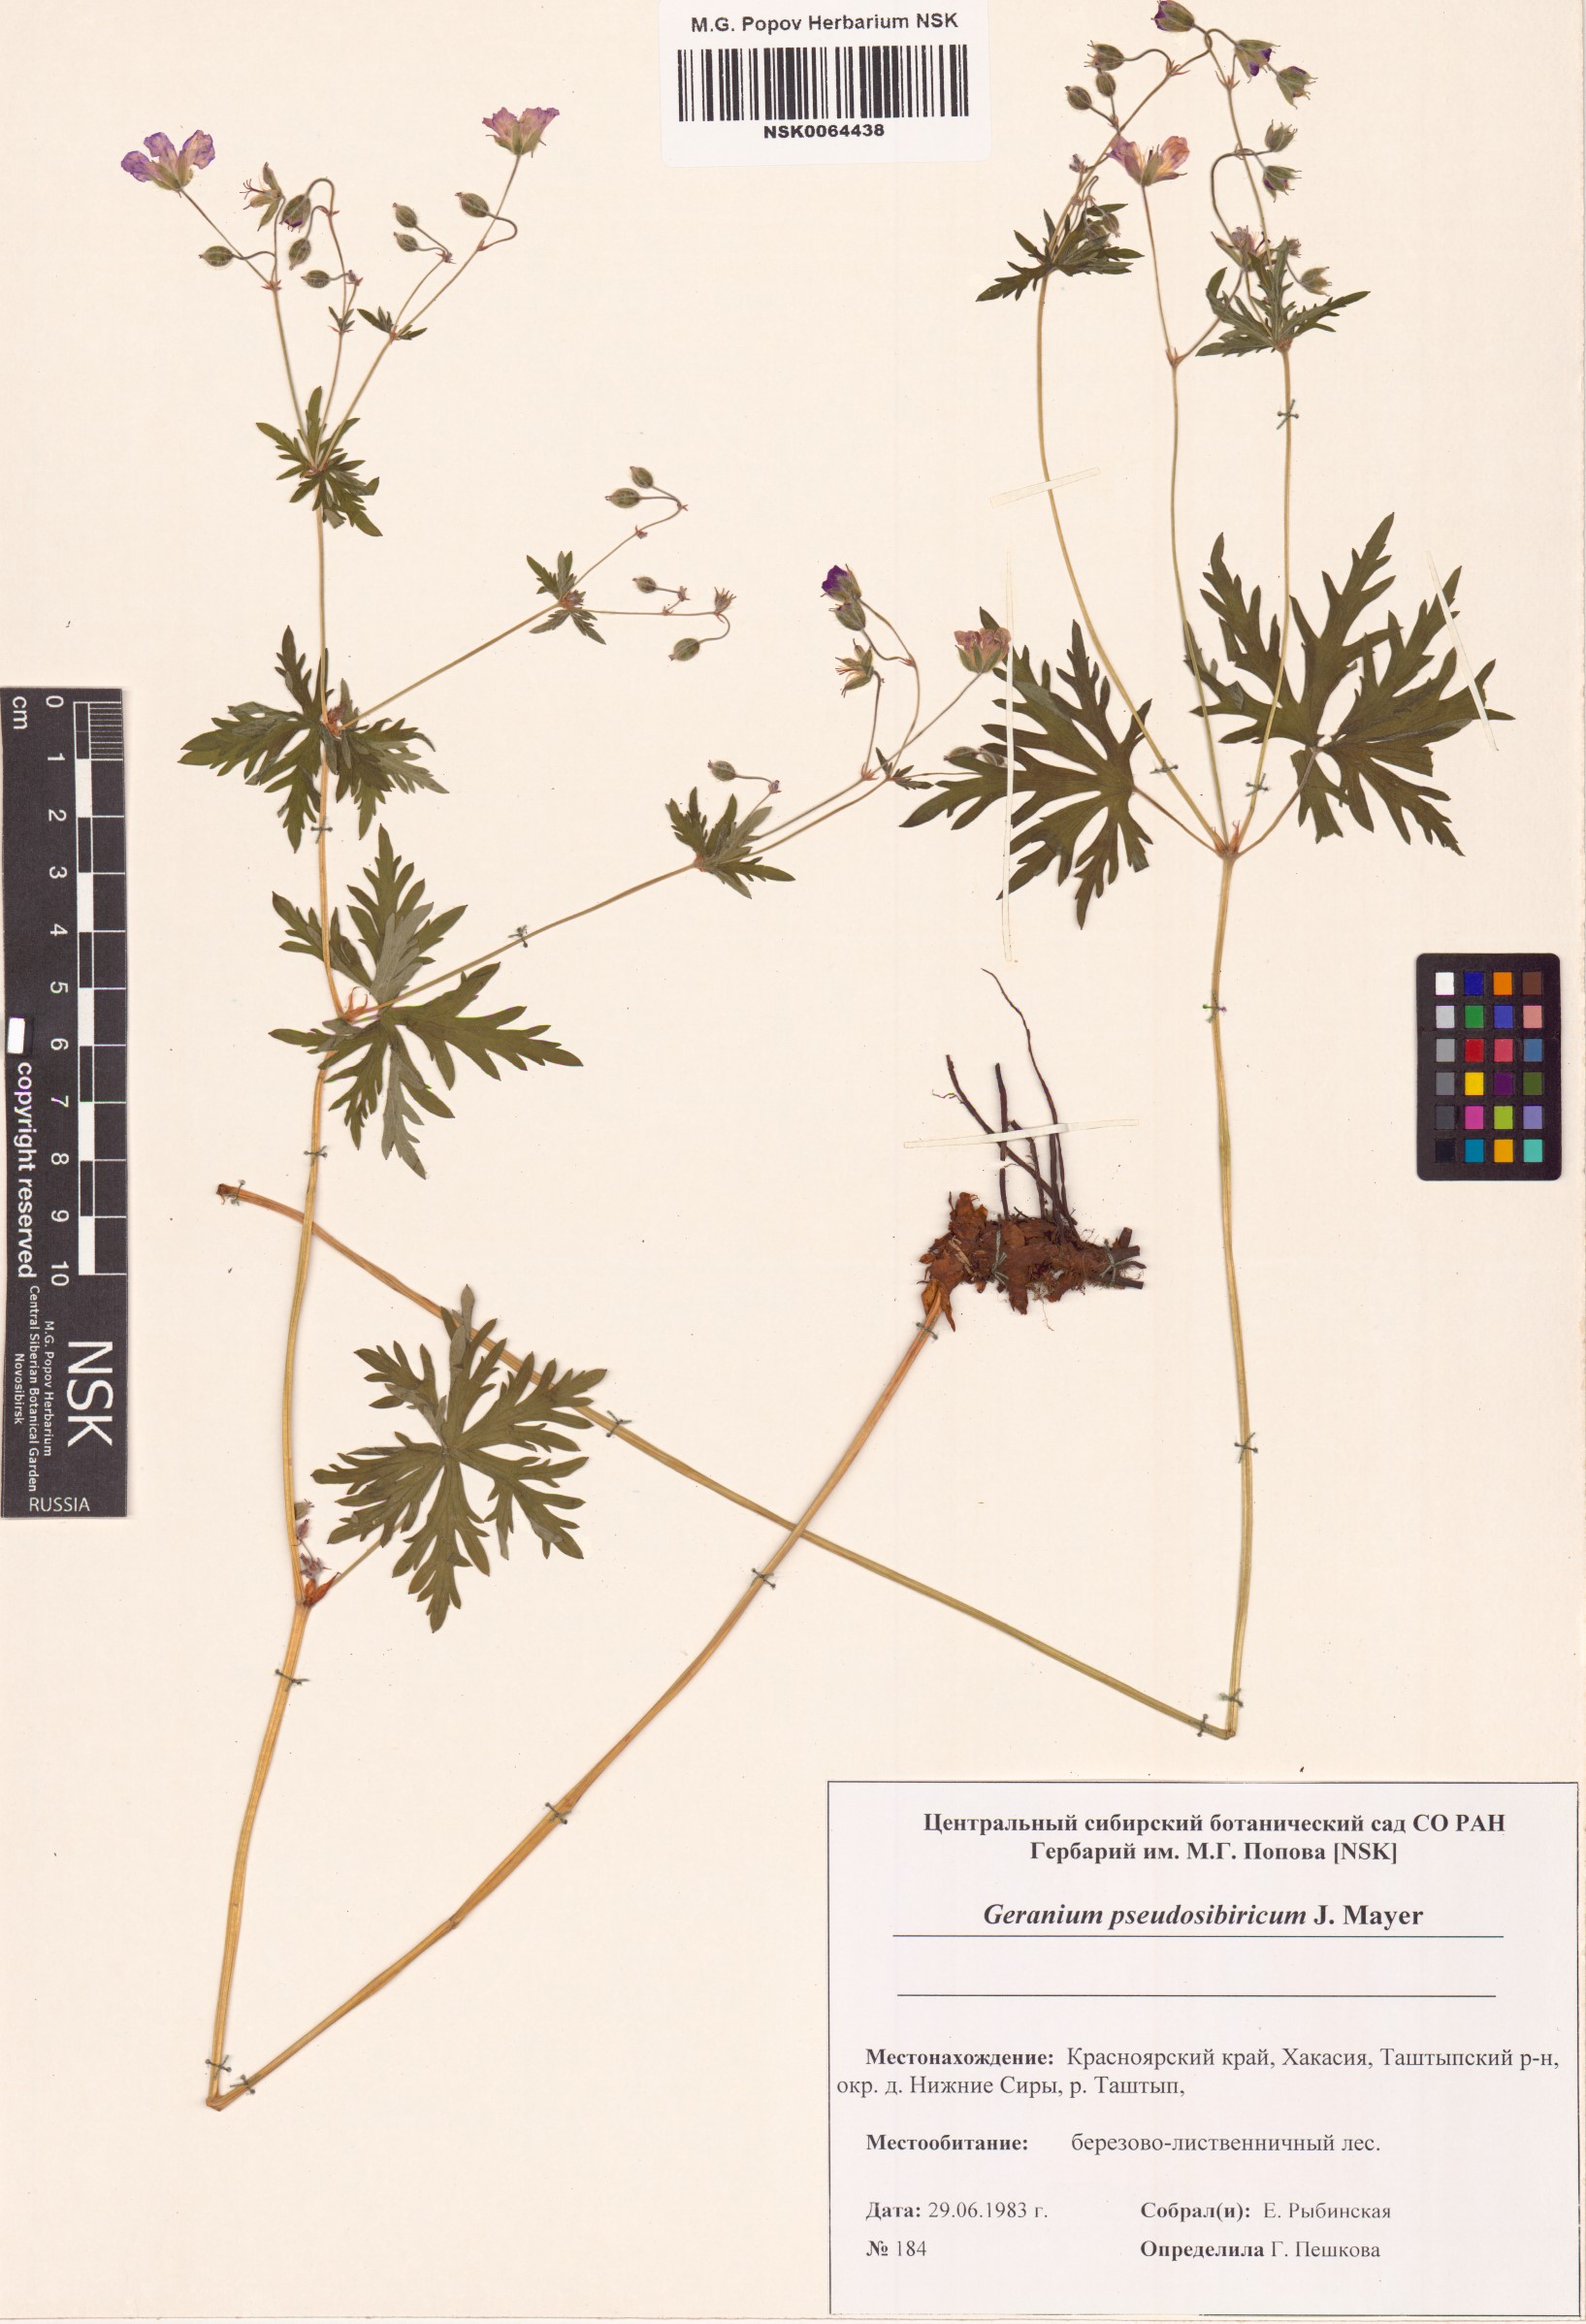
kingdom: Plantae
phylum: Tracheophyta
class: Magnoliopsida
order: Geraniales
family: Geraniaceae
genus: Geranium
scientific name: Geranium pseudosibiricum
